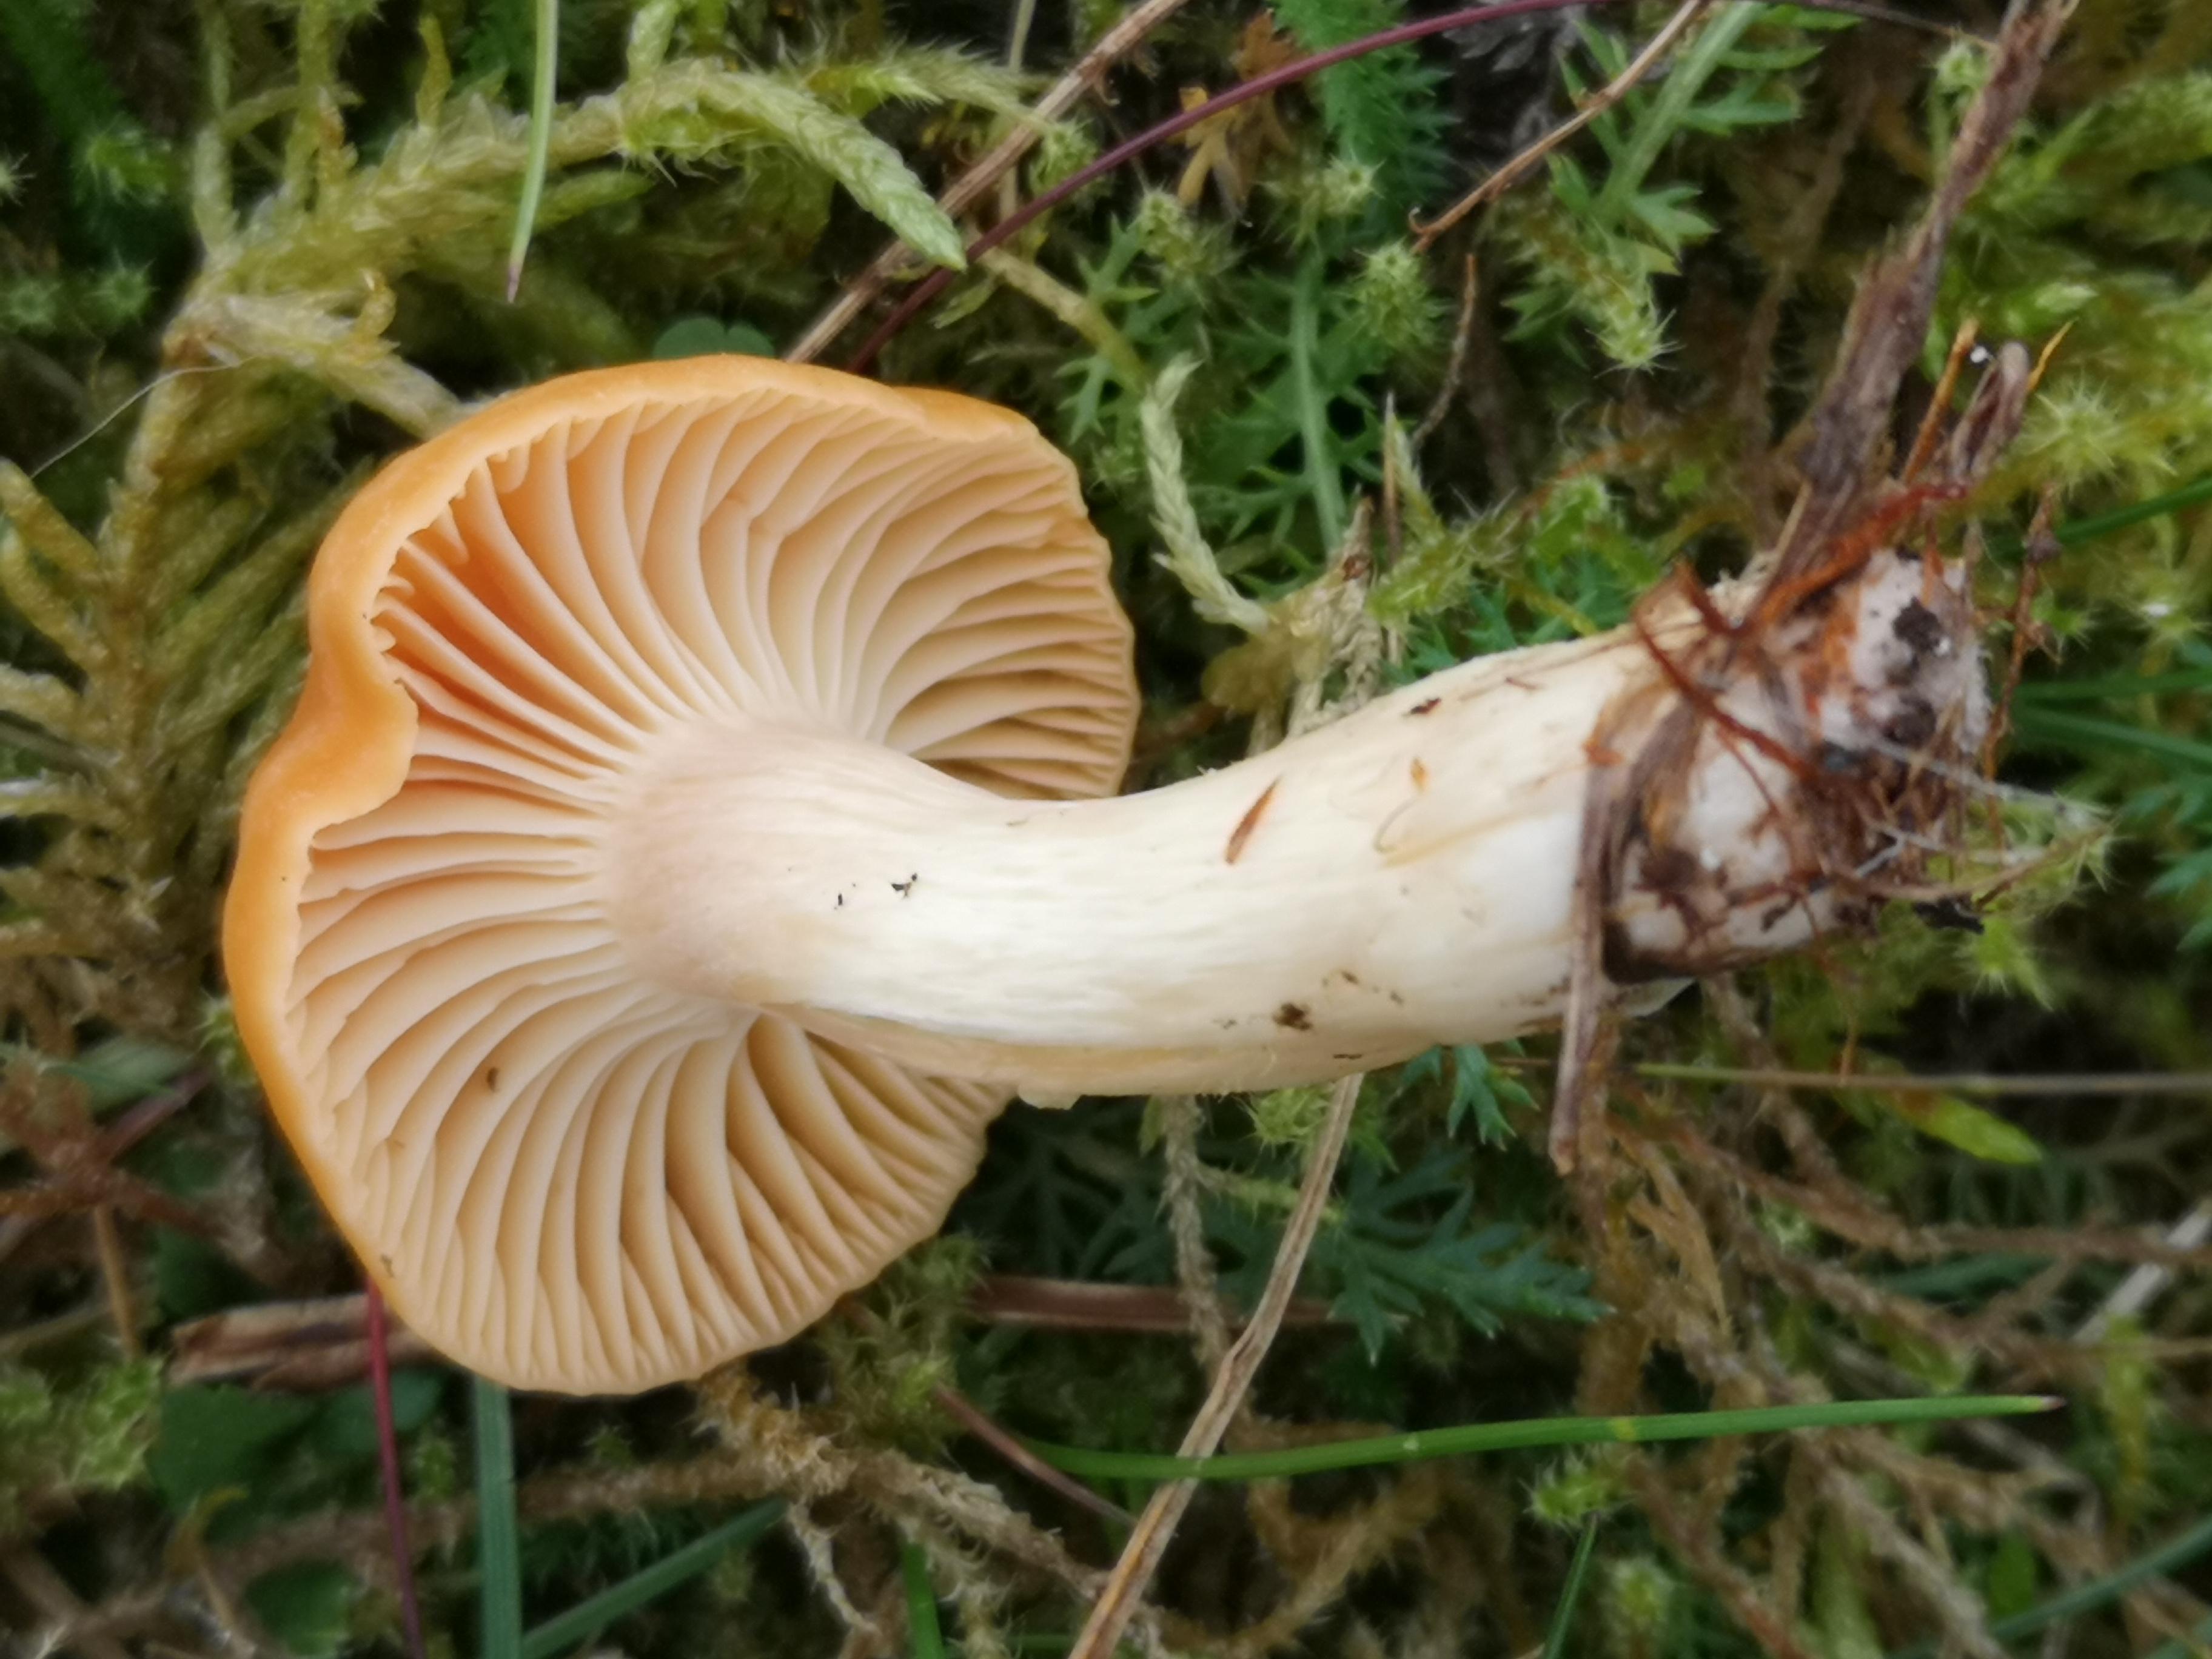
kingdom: Fungi
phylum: Basidiomycota
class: Agaricomycetes
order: Agaricales
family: Hygrophoraceae
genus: Cuphophyllus
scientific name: Cuphophyllus pratensis
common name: eng-vokshat
